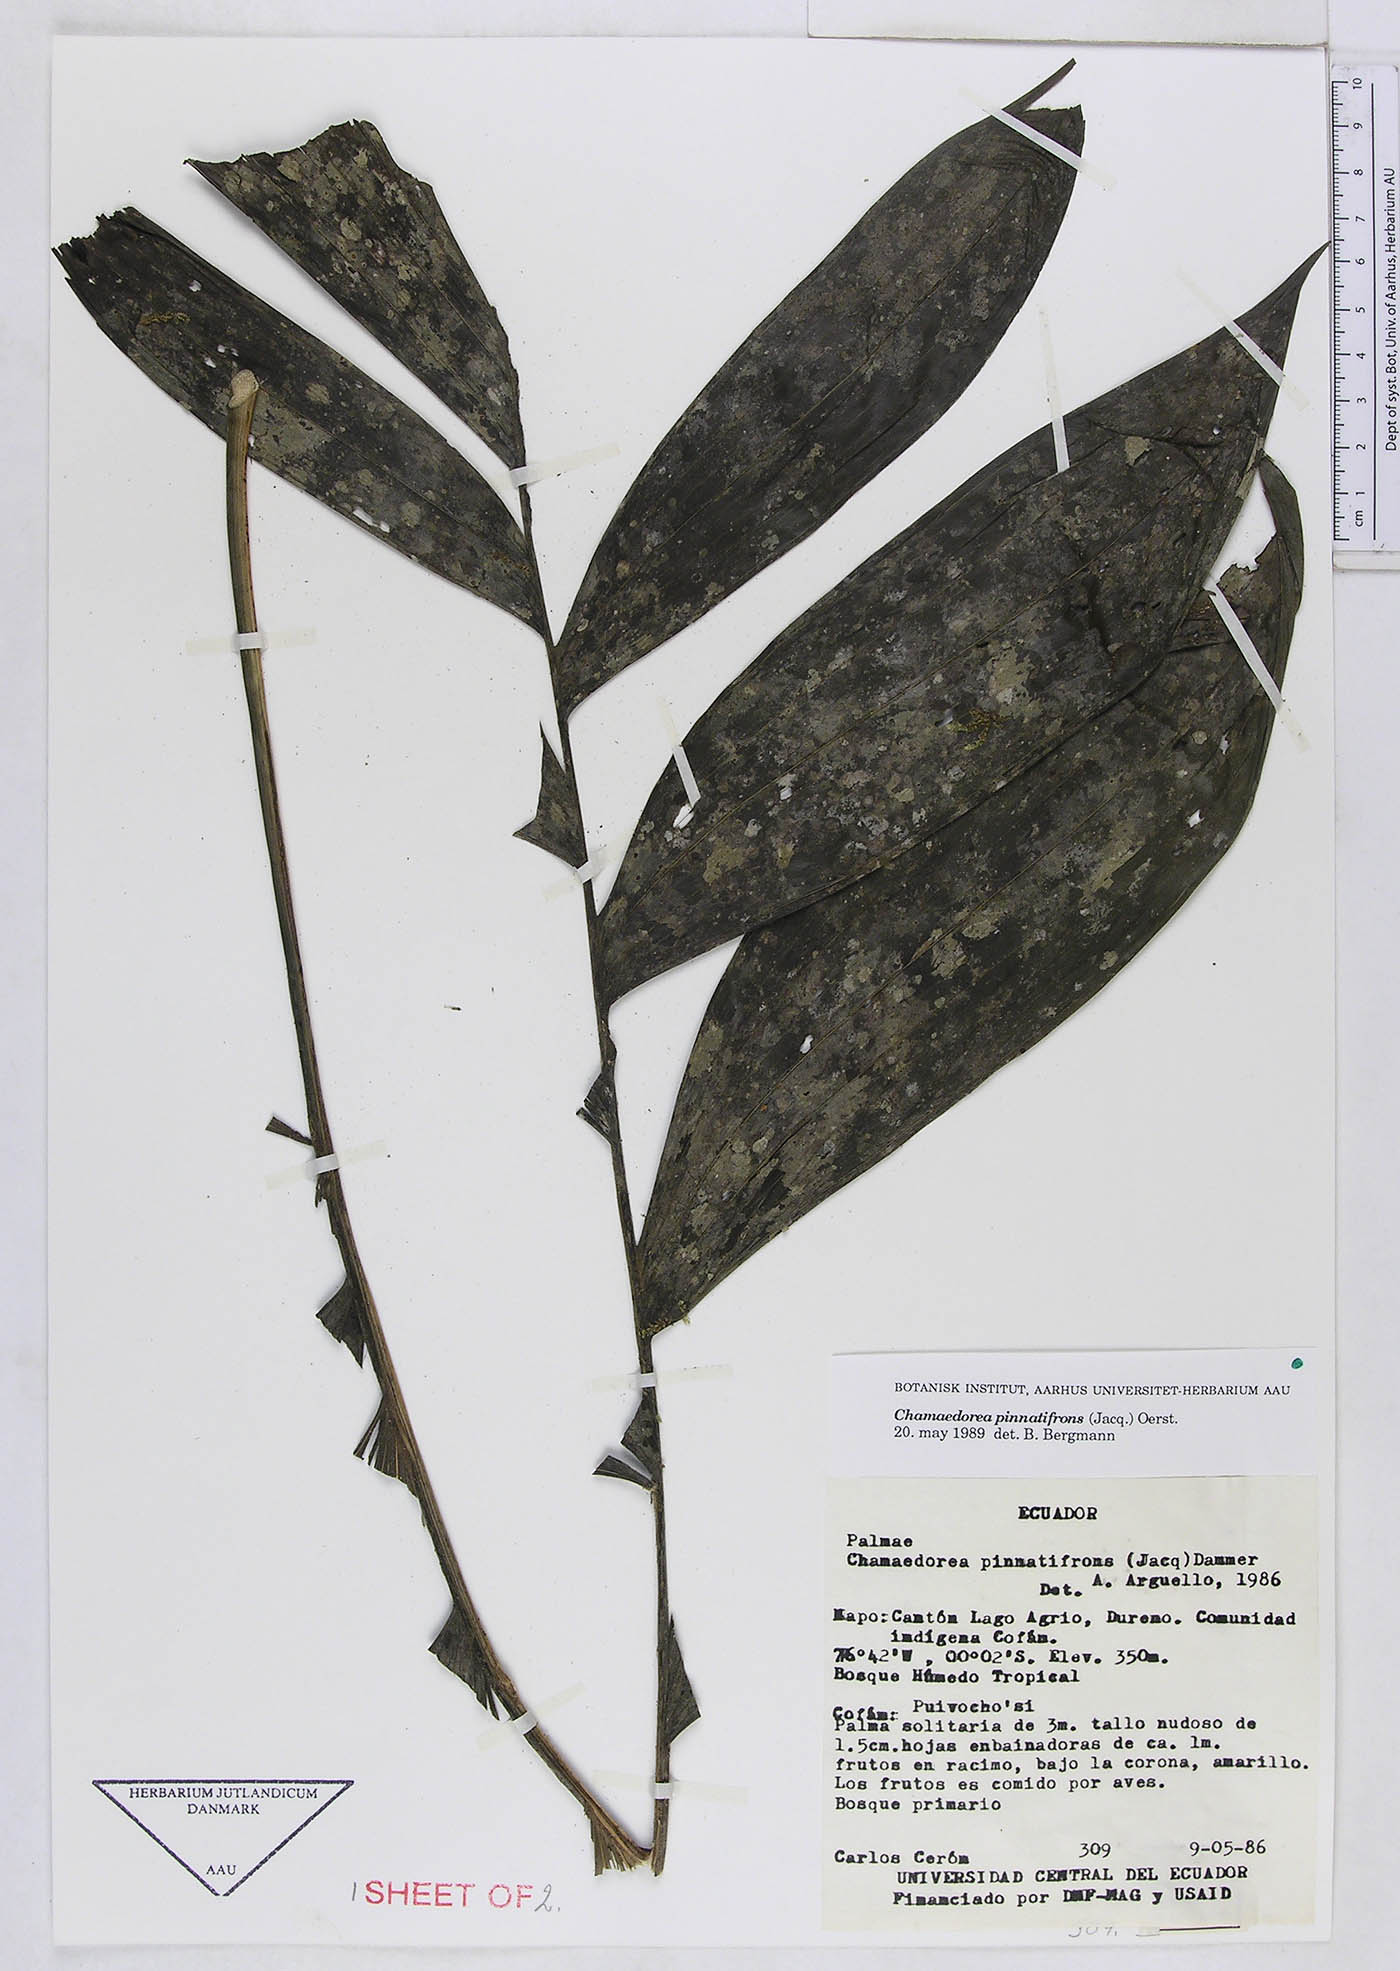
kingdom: Plantae
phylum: Tracheophyta
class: Liliopsida
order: Arecales
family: Arecaceae
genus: Chamaedorea
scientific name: Chamaedorea pinnatifrons
